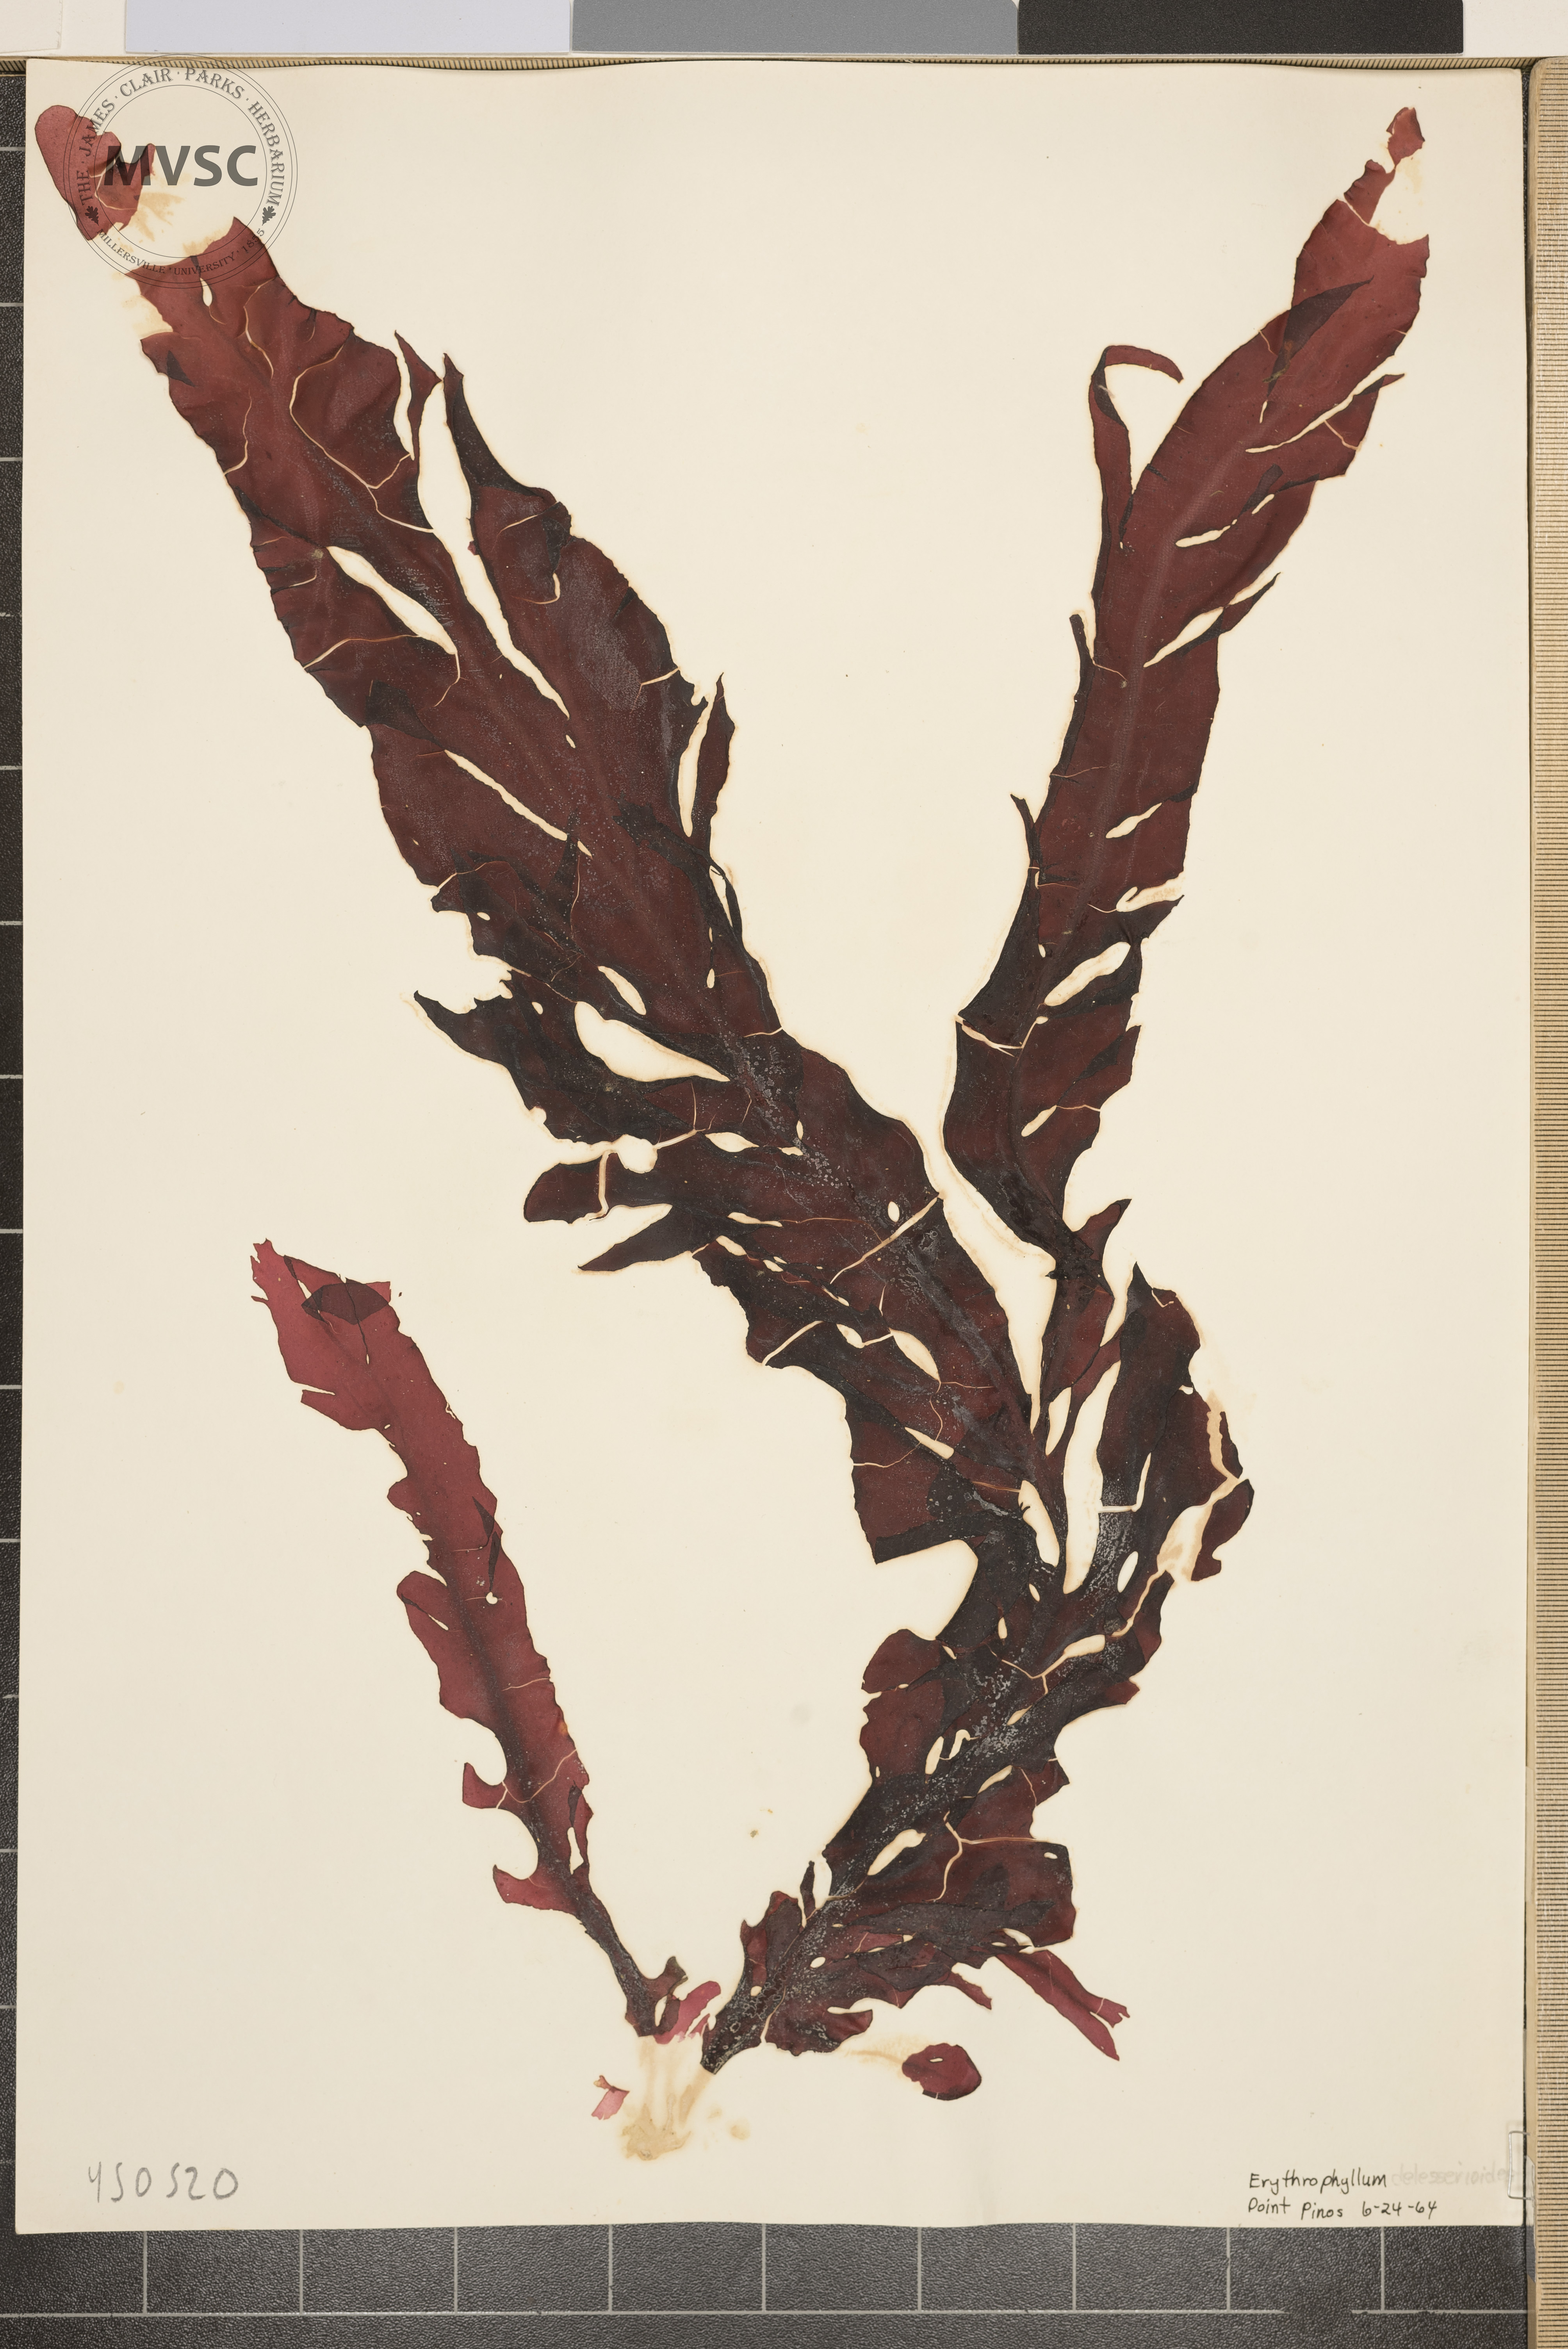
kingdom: Plantae
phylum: Rhodophyta
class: Florideophyceae
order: Gigartinales
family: Kallymeniaceae
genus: Erythrophyllum
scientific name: Erythrophyllum delesserioides
